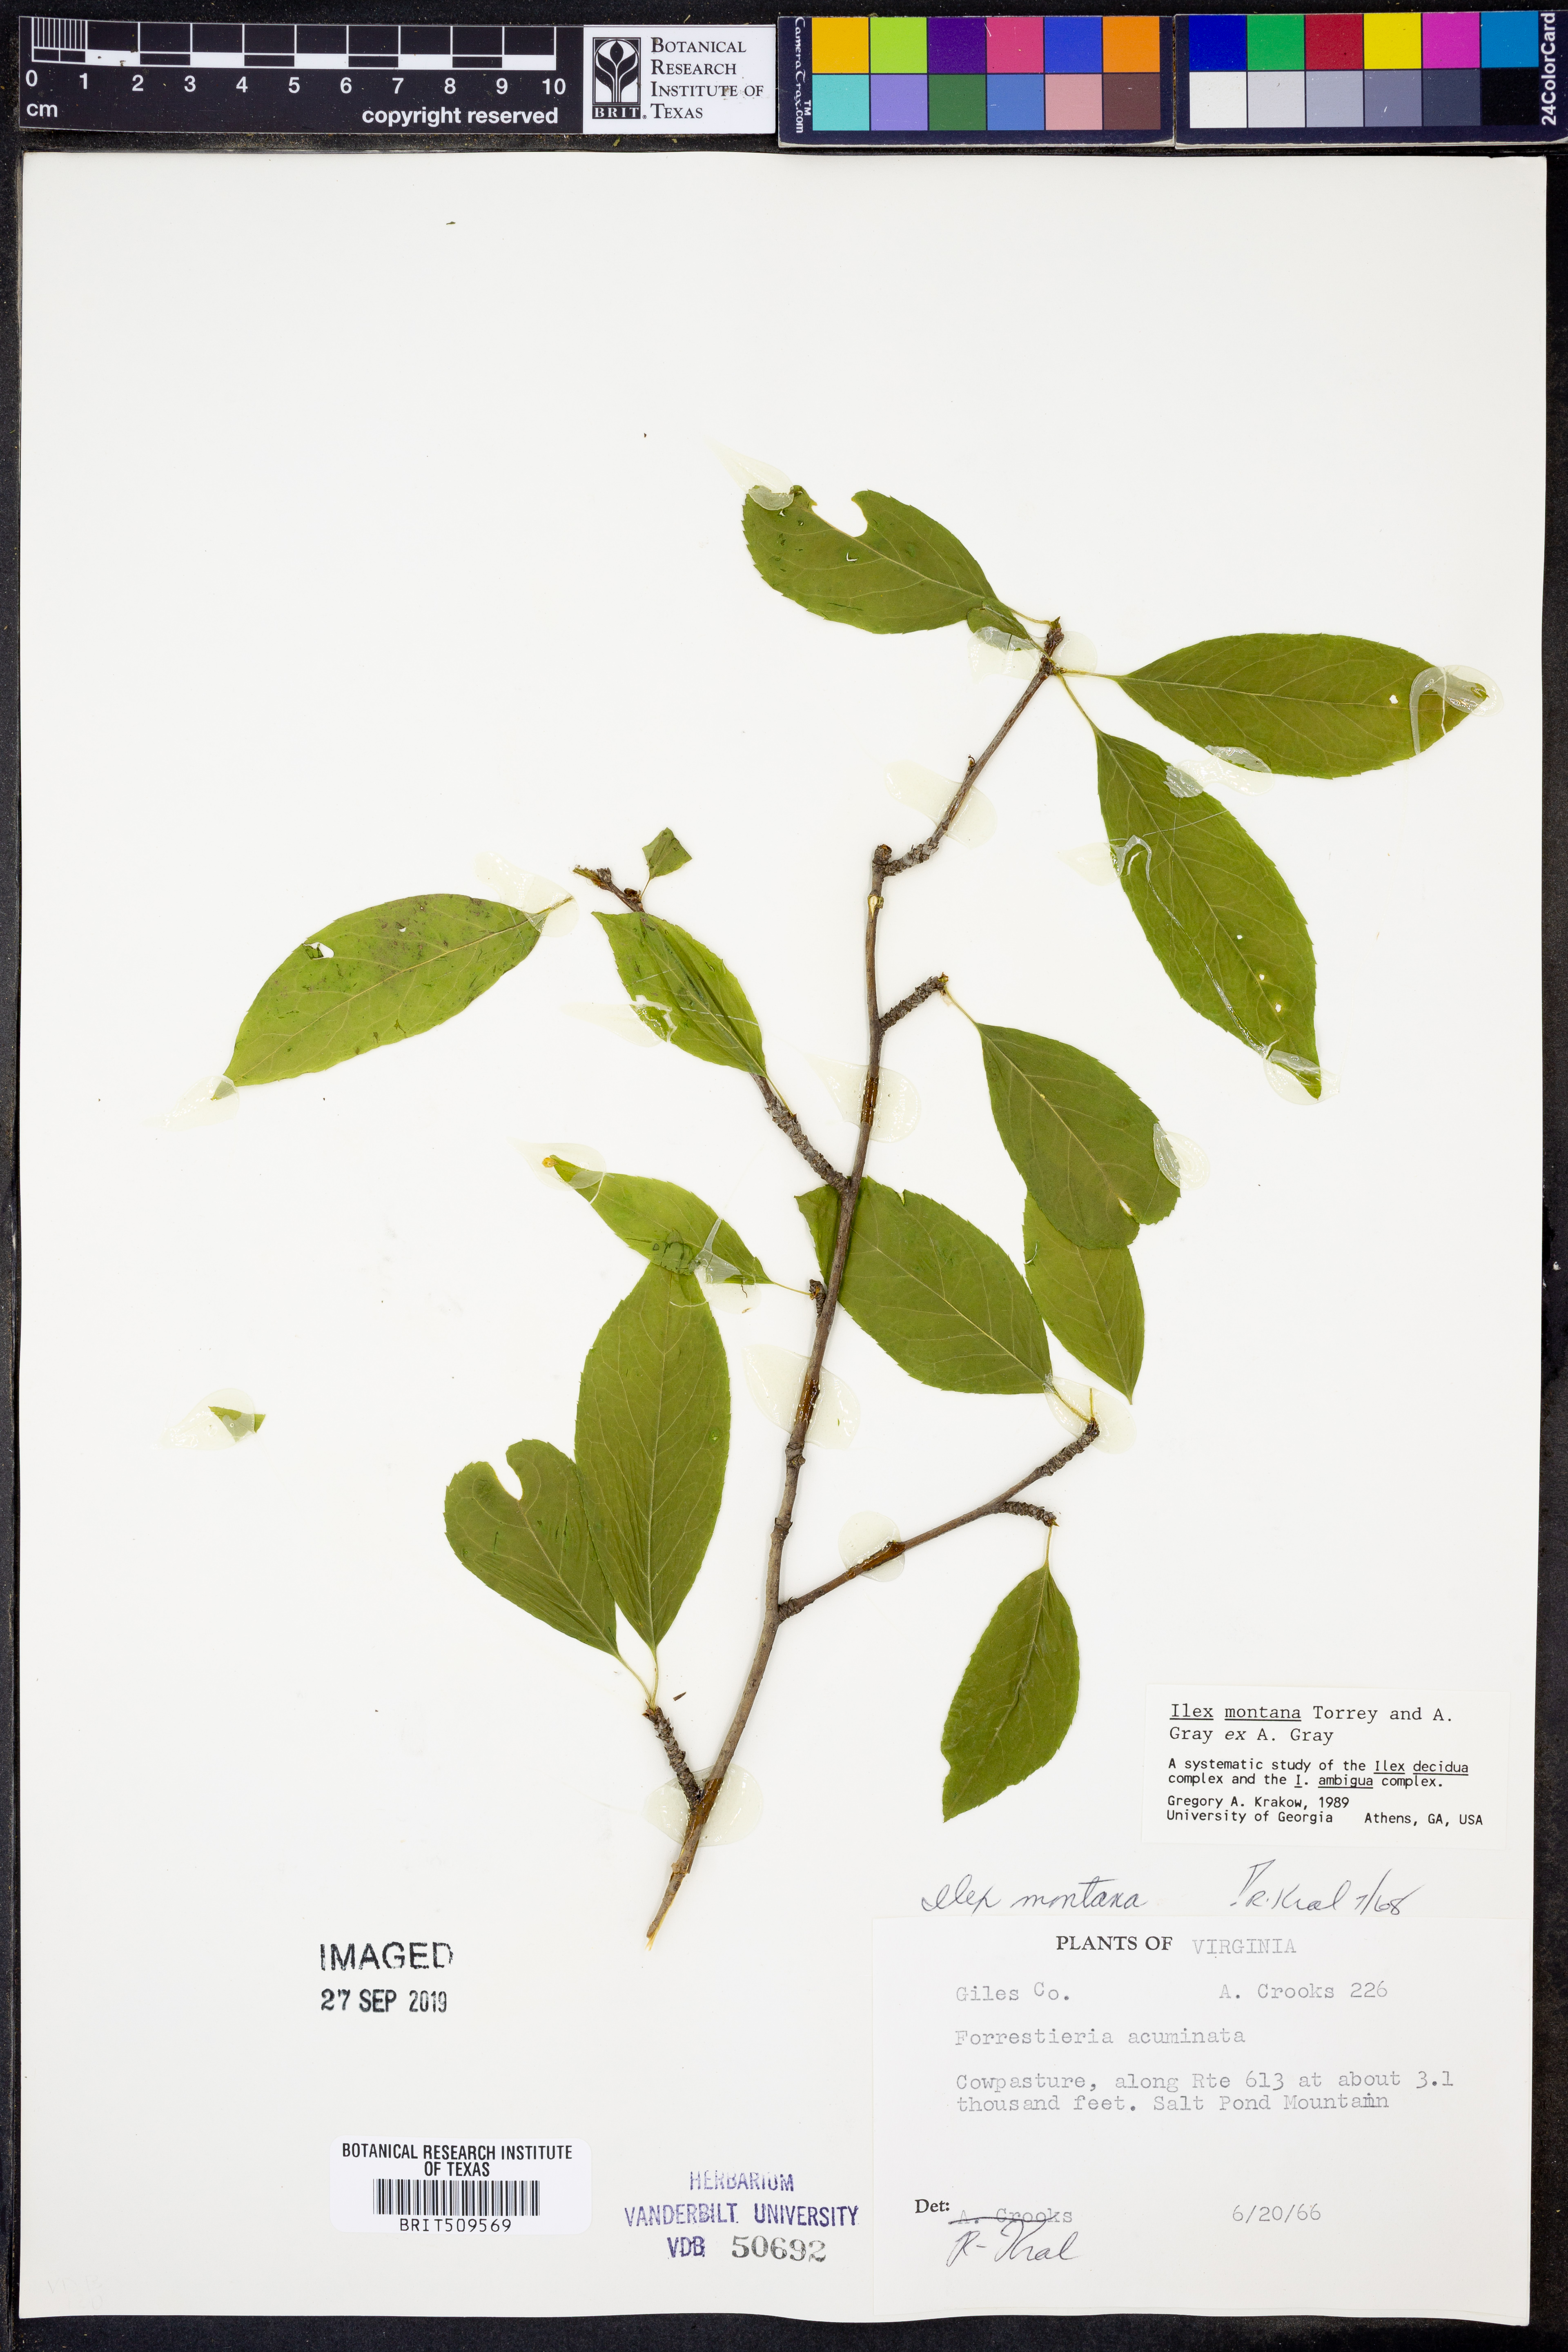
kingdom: Plantae
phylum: Tracheophyta
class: Magnoliopsida
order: Aquifoliales
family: Aquifoliaceae
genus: Ilex
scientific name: Ilex montana
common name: Mountain winterberry
